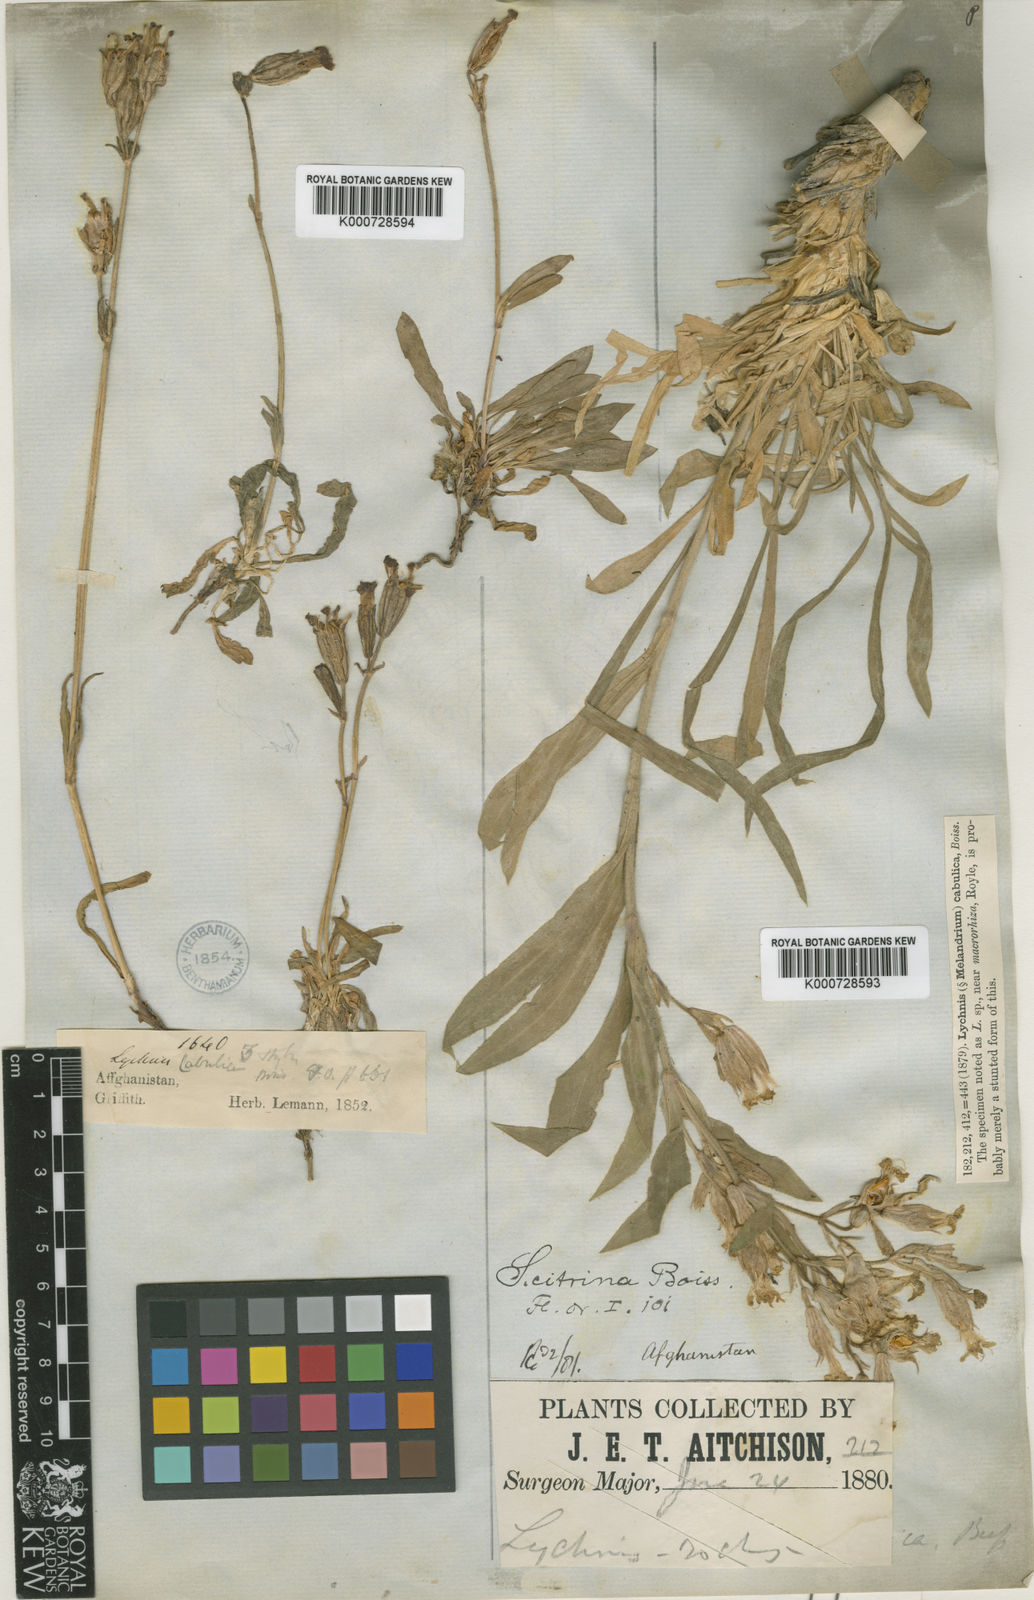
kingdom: Plantae
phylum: Tracheophyta
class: Magnoliopsida
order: Caryophyllales
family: Caryophyllaceae
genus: Silene
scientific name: Silene citrina
